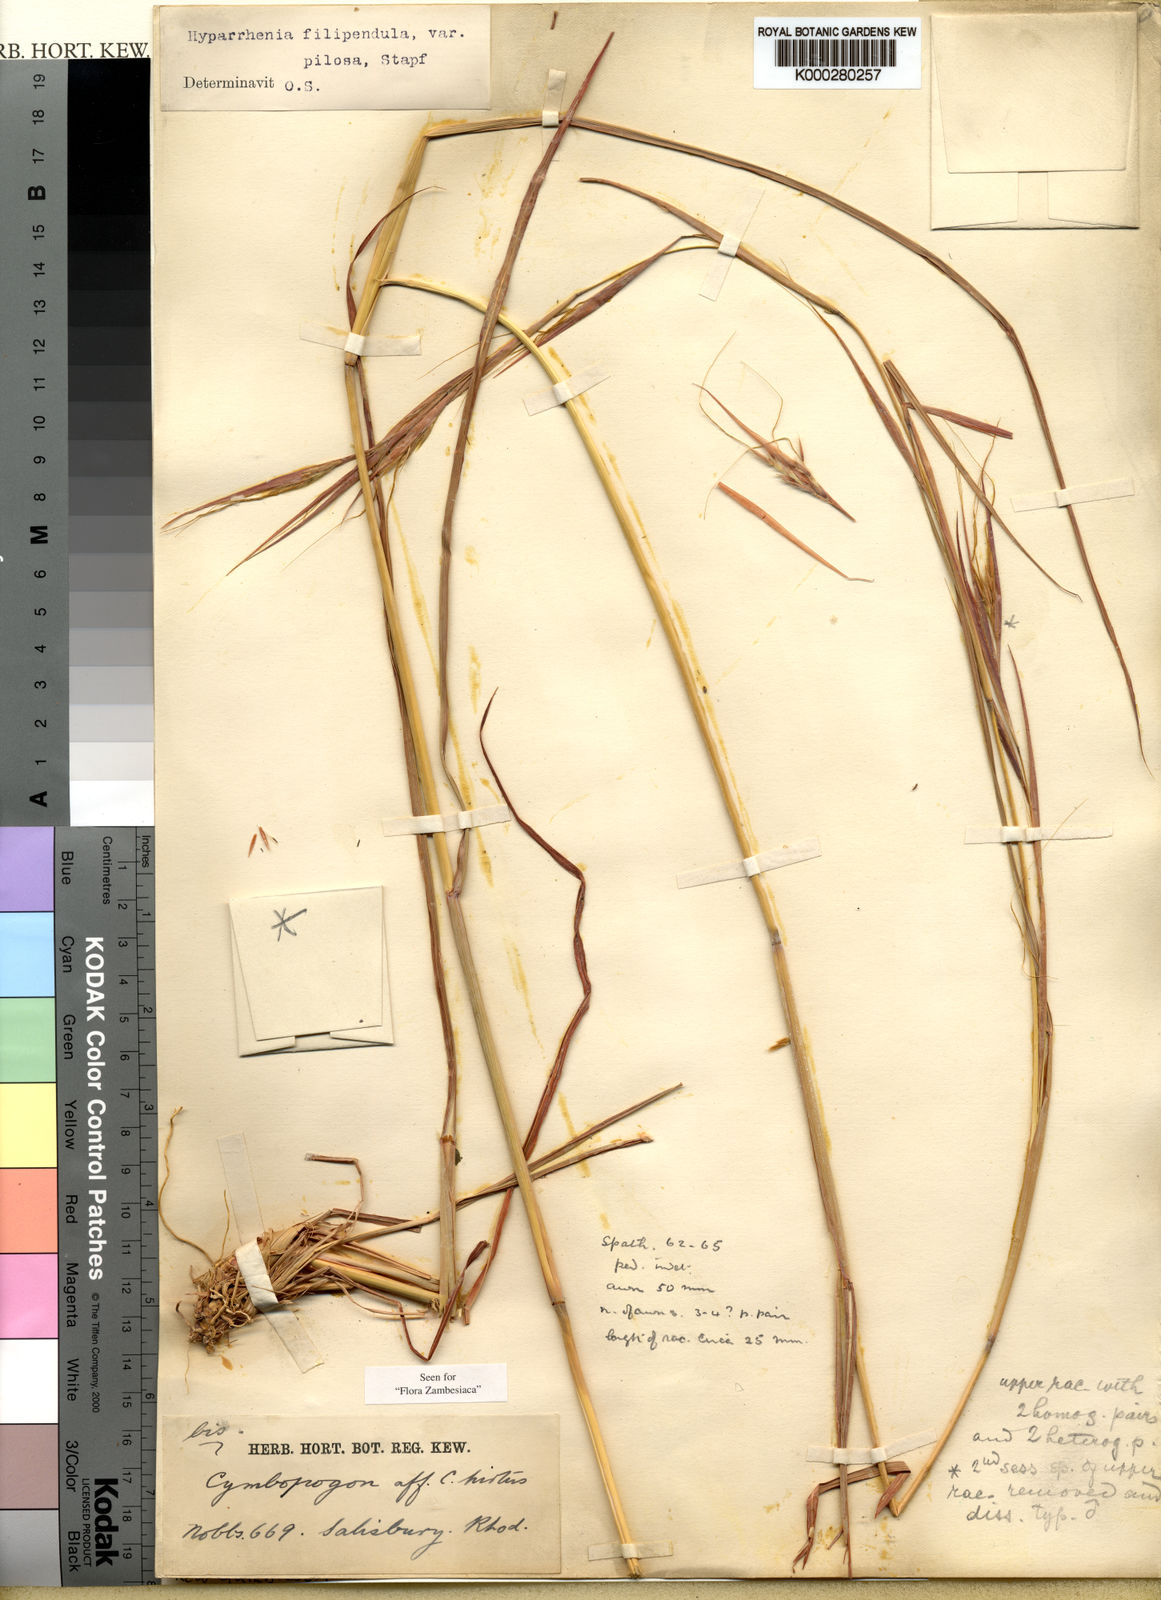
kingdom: Plantae
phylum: Tracheophyta
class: Liliopsida
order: Poales
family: Poaceae
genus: Hyparrhenia
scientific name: Hyparrhenia nyassae
